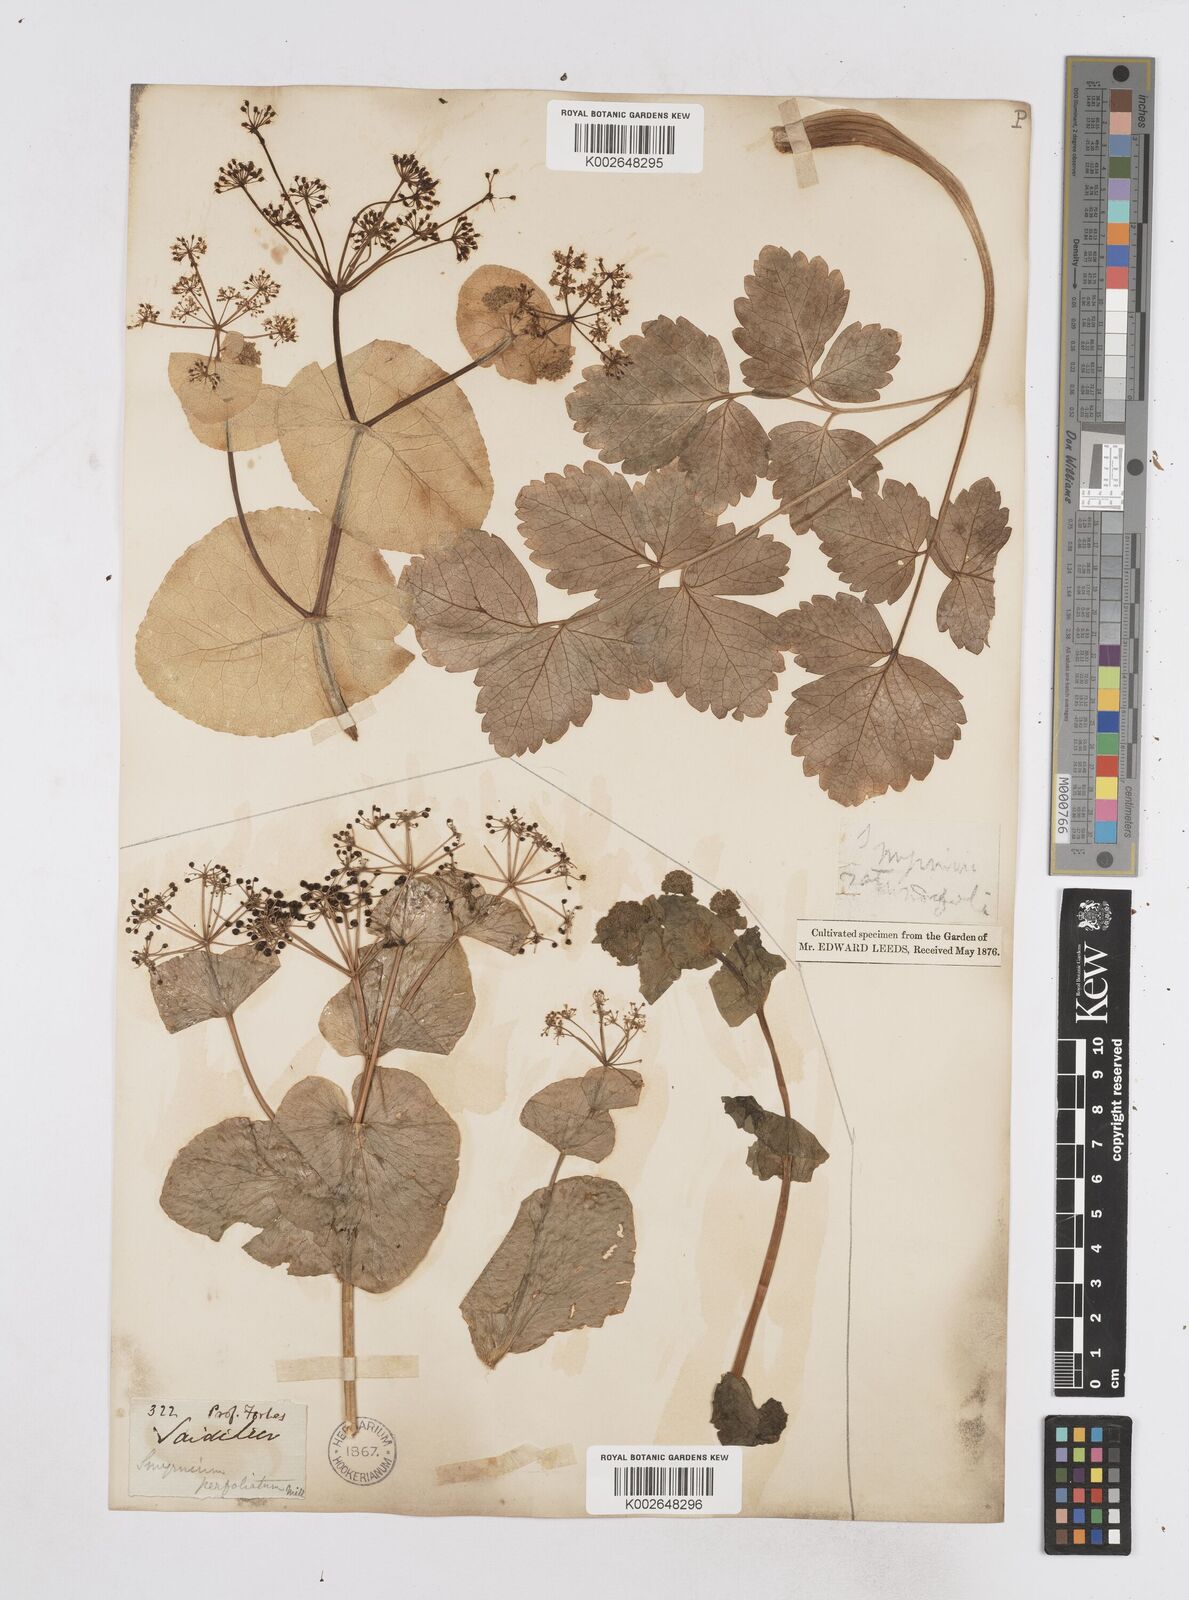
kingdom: Plantae
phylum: Tracheophyta
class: Magnoliopsida
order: Apiales
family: Apiaceae
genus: Smyrnium
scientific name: Smyrnium perfoliatum
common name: Perfoliate alexanders
